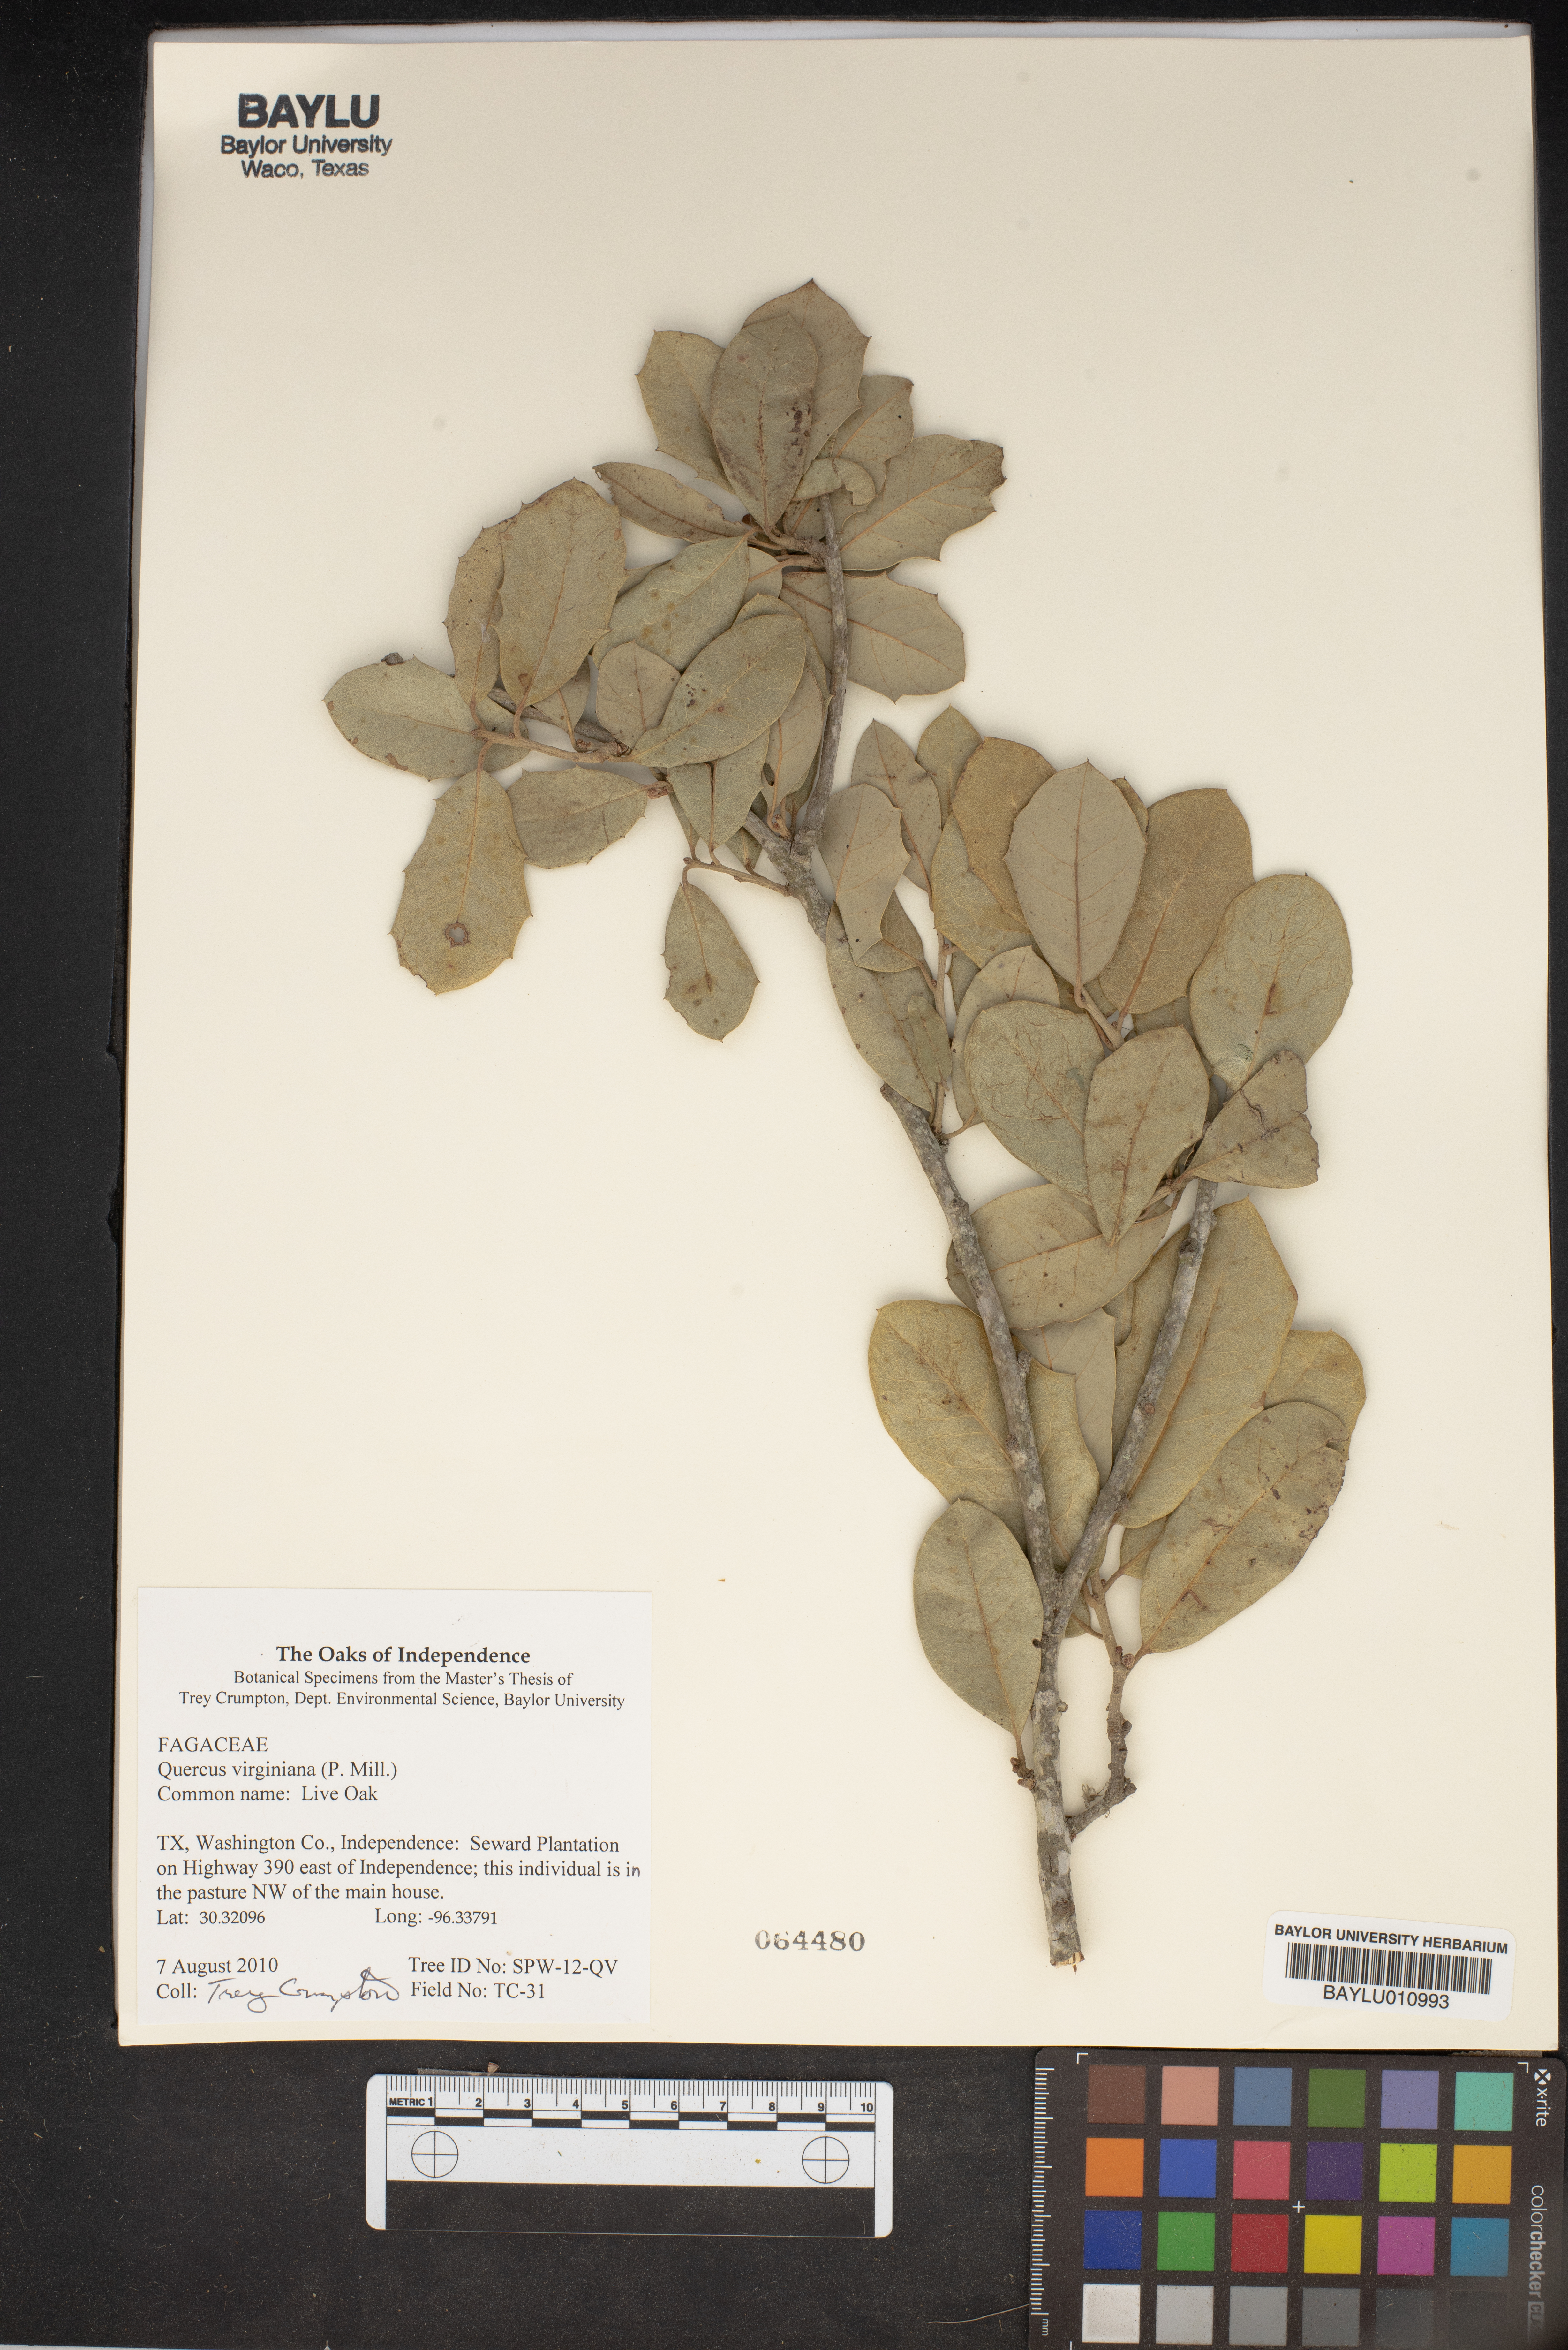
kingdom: Plantae
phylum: Tracheophyta
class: Magnoliopsida
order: Fagales
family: Fagaceae
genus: Quercus
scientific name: Quercus virginiana
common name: Southern live oak
